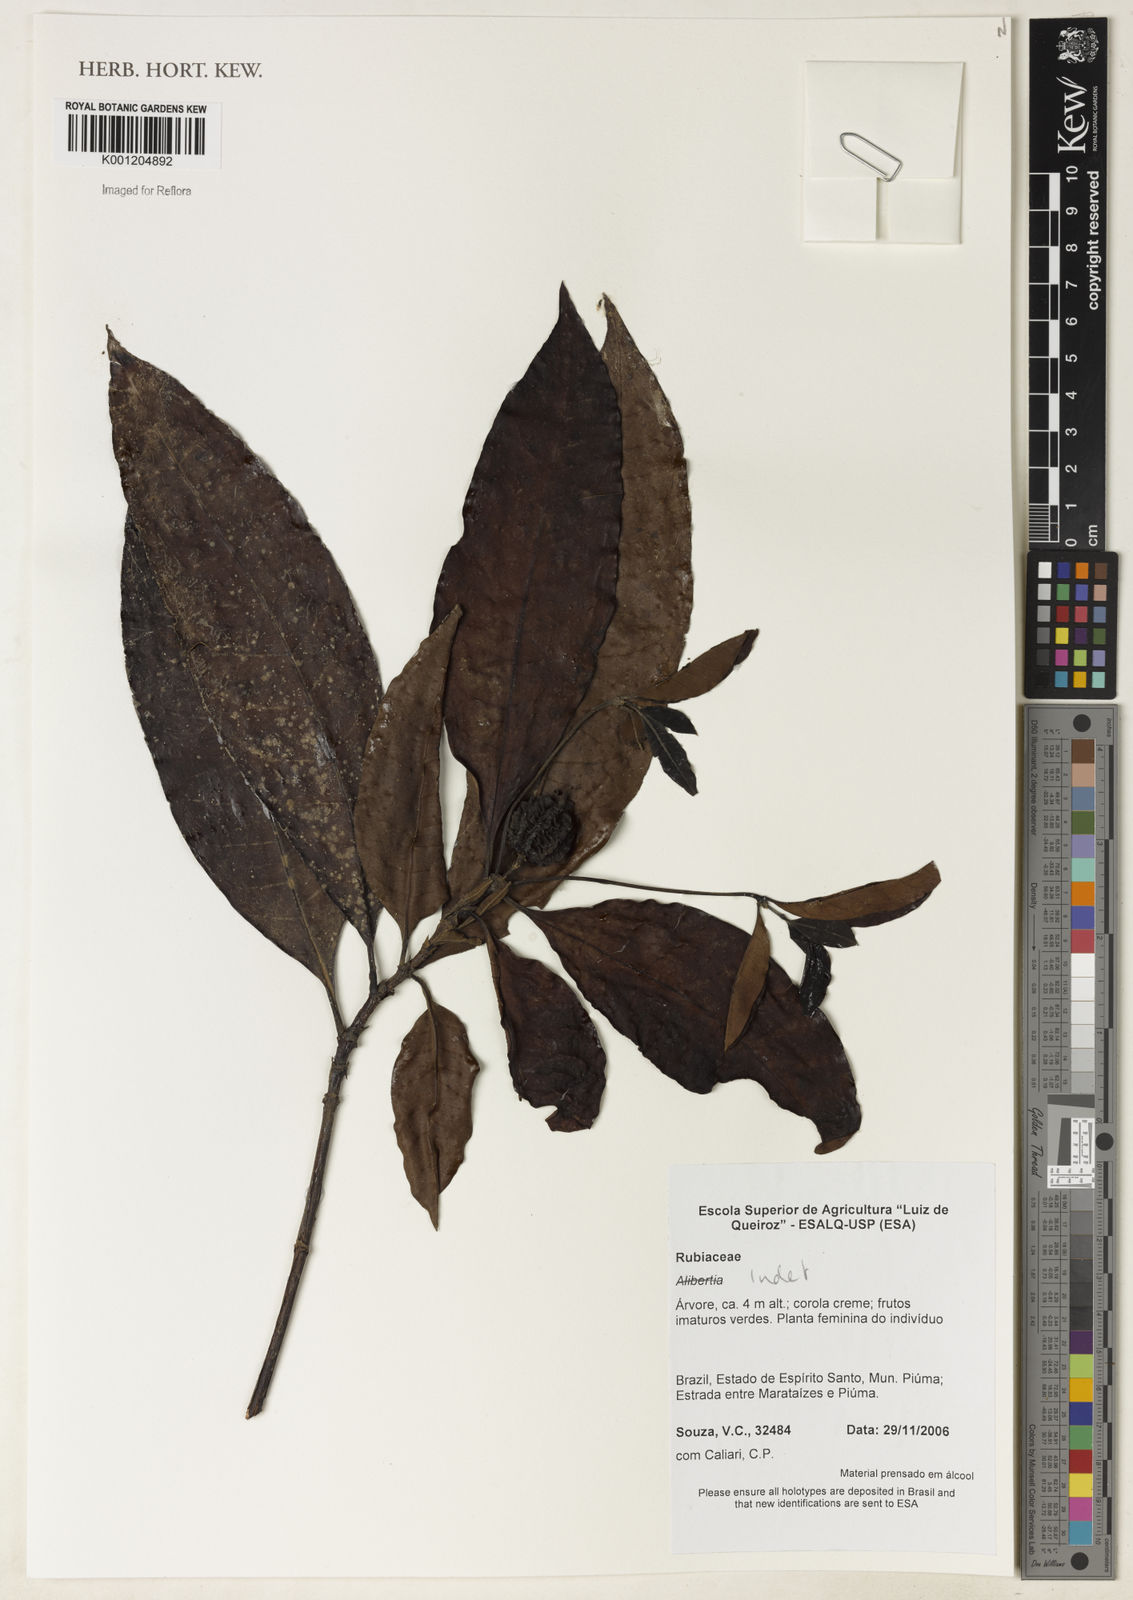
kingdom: Plantae
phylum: Tracheophyta
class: Magnoliopsida
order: Gentianales
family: Rubiaceae
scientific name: Rubiaceae
